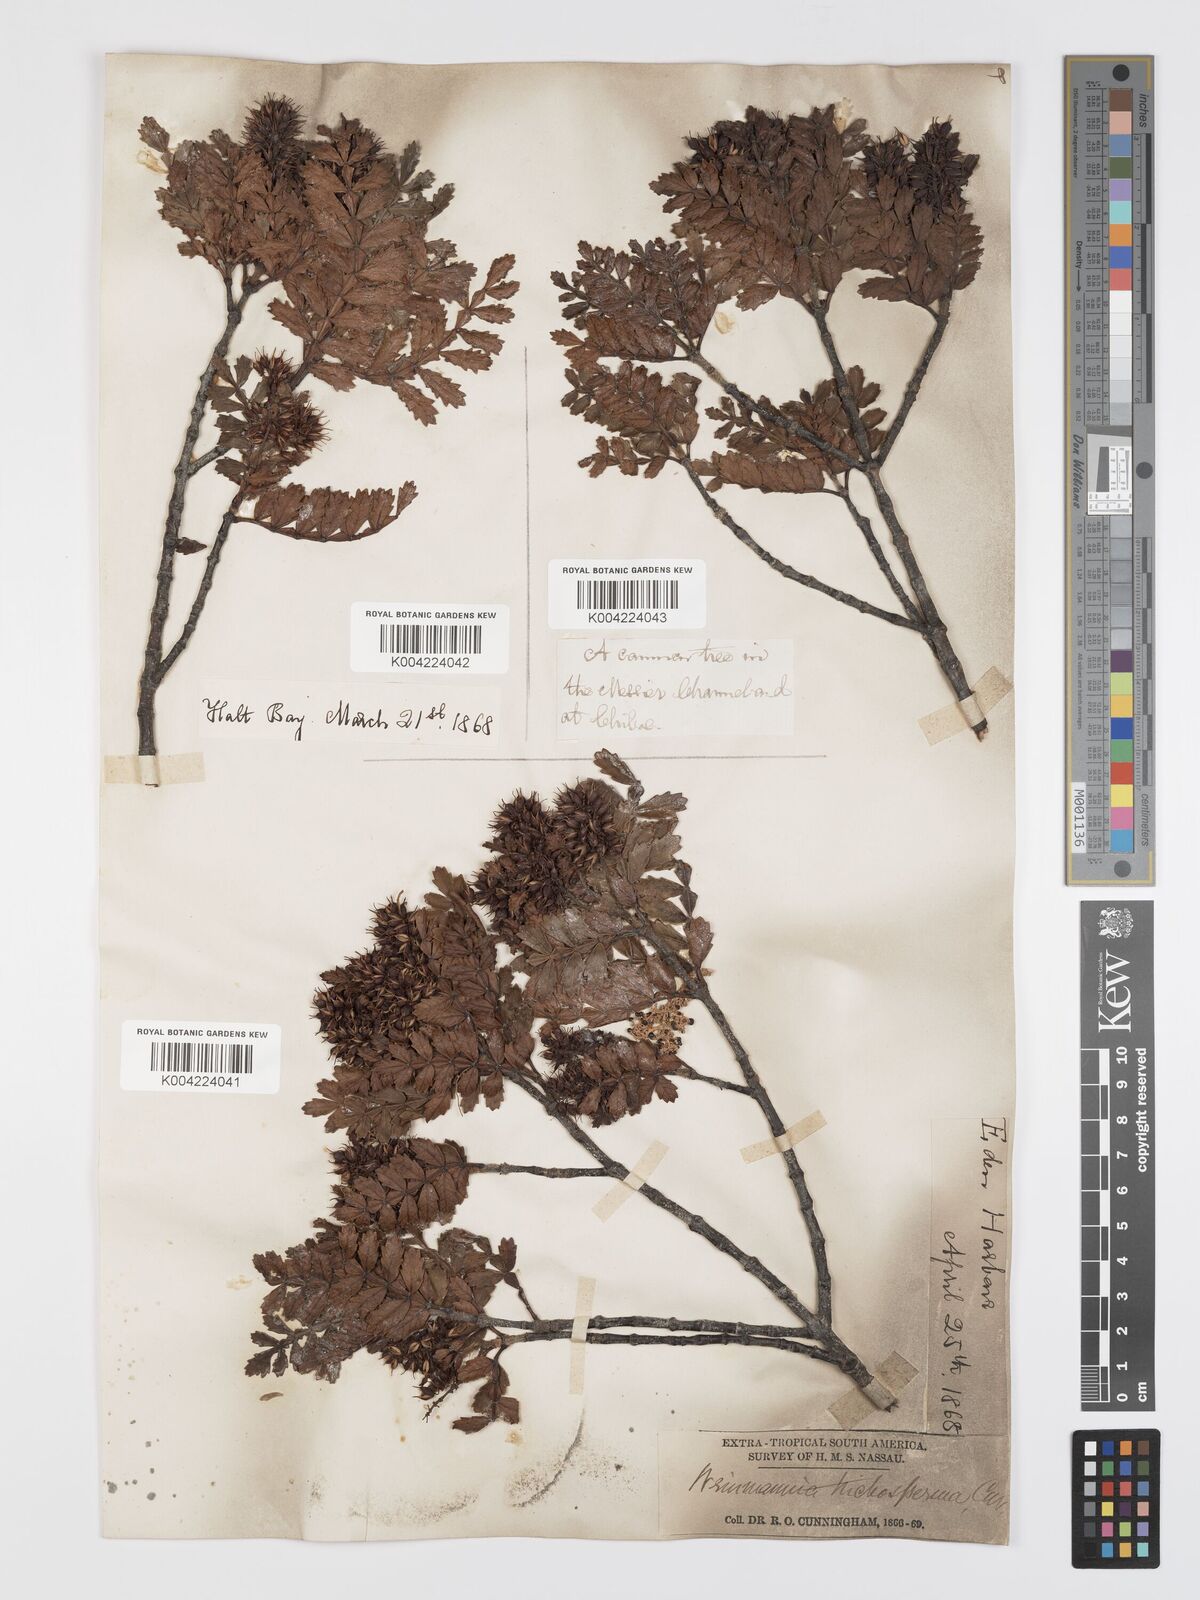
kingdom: Plantae
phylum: Tracheophyta
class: Magnoliopsida
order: Oxalidales
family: Cunoniaceae
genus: Weinmannia
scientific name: Weinmannia trichosperma
